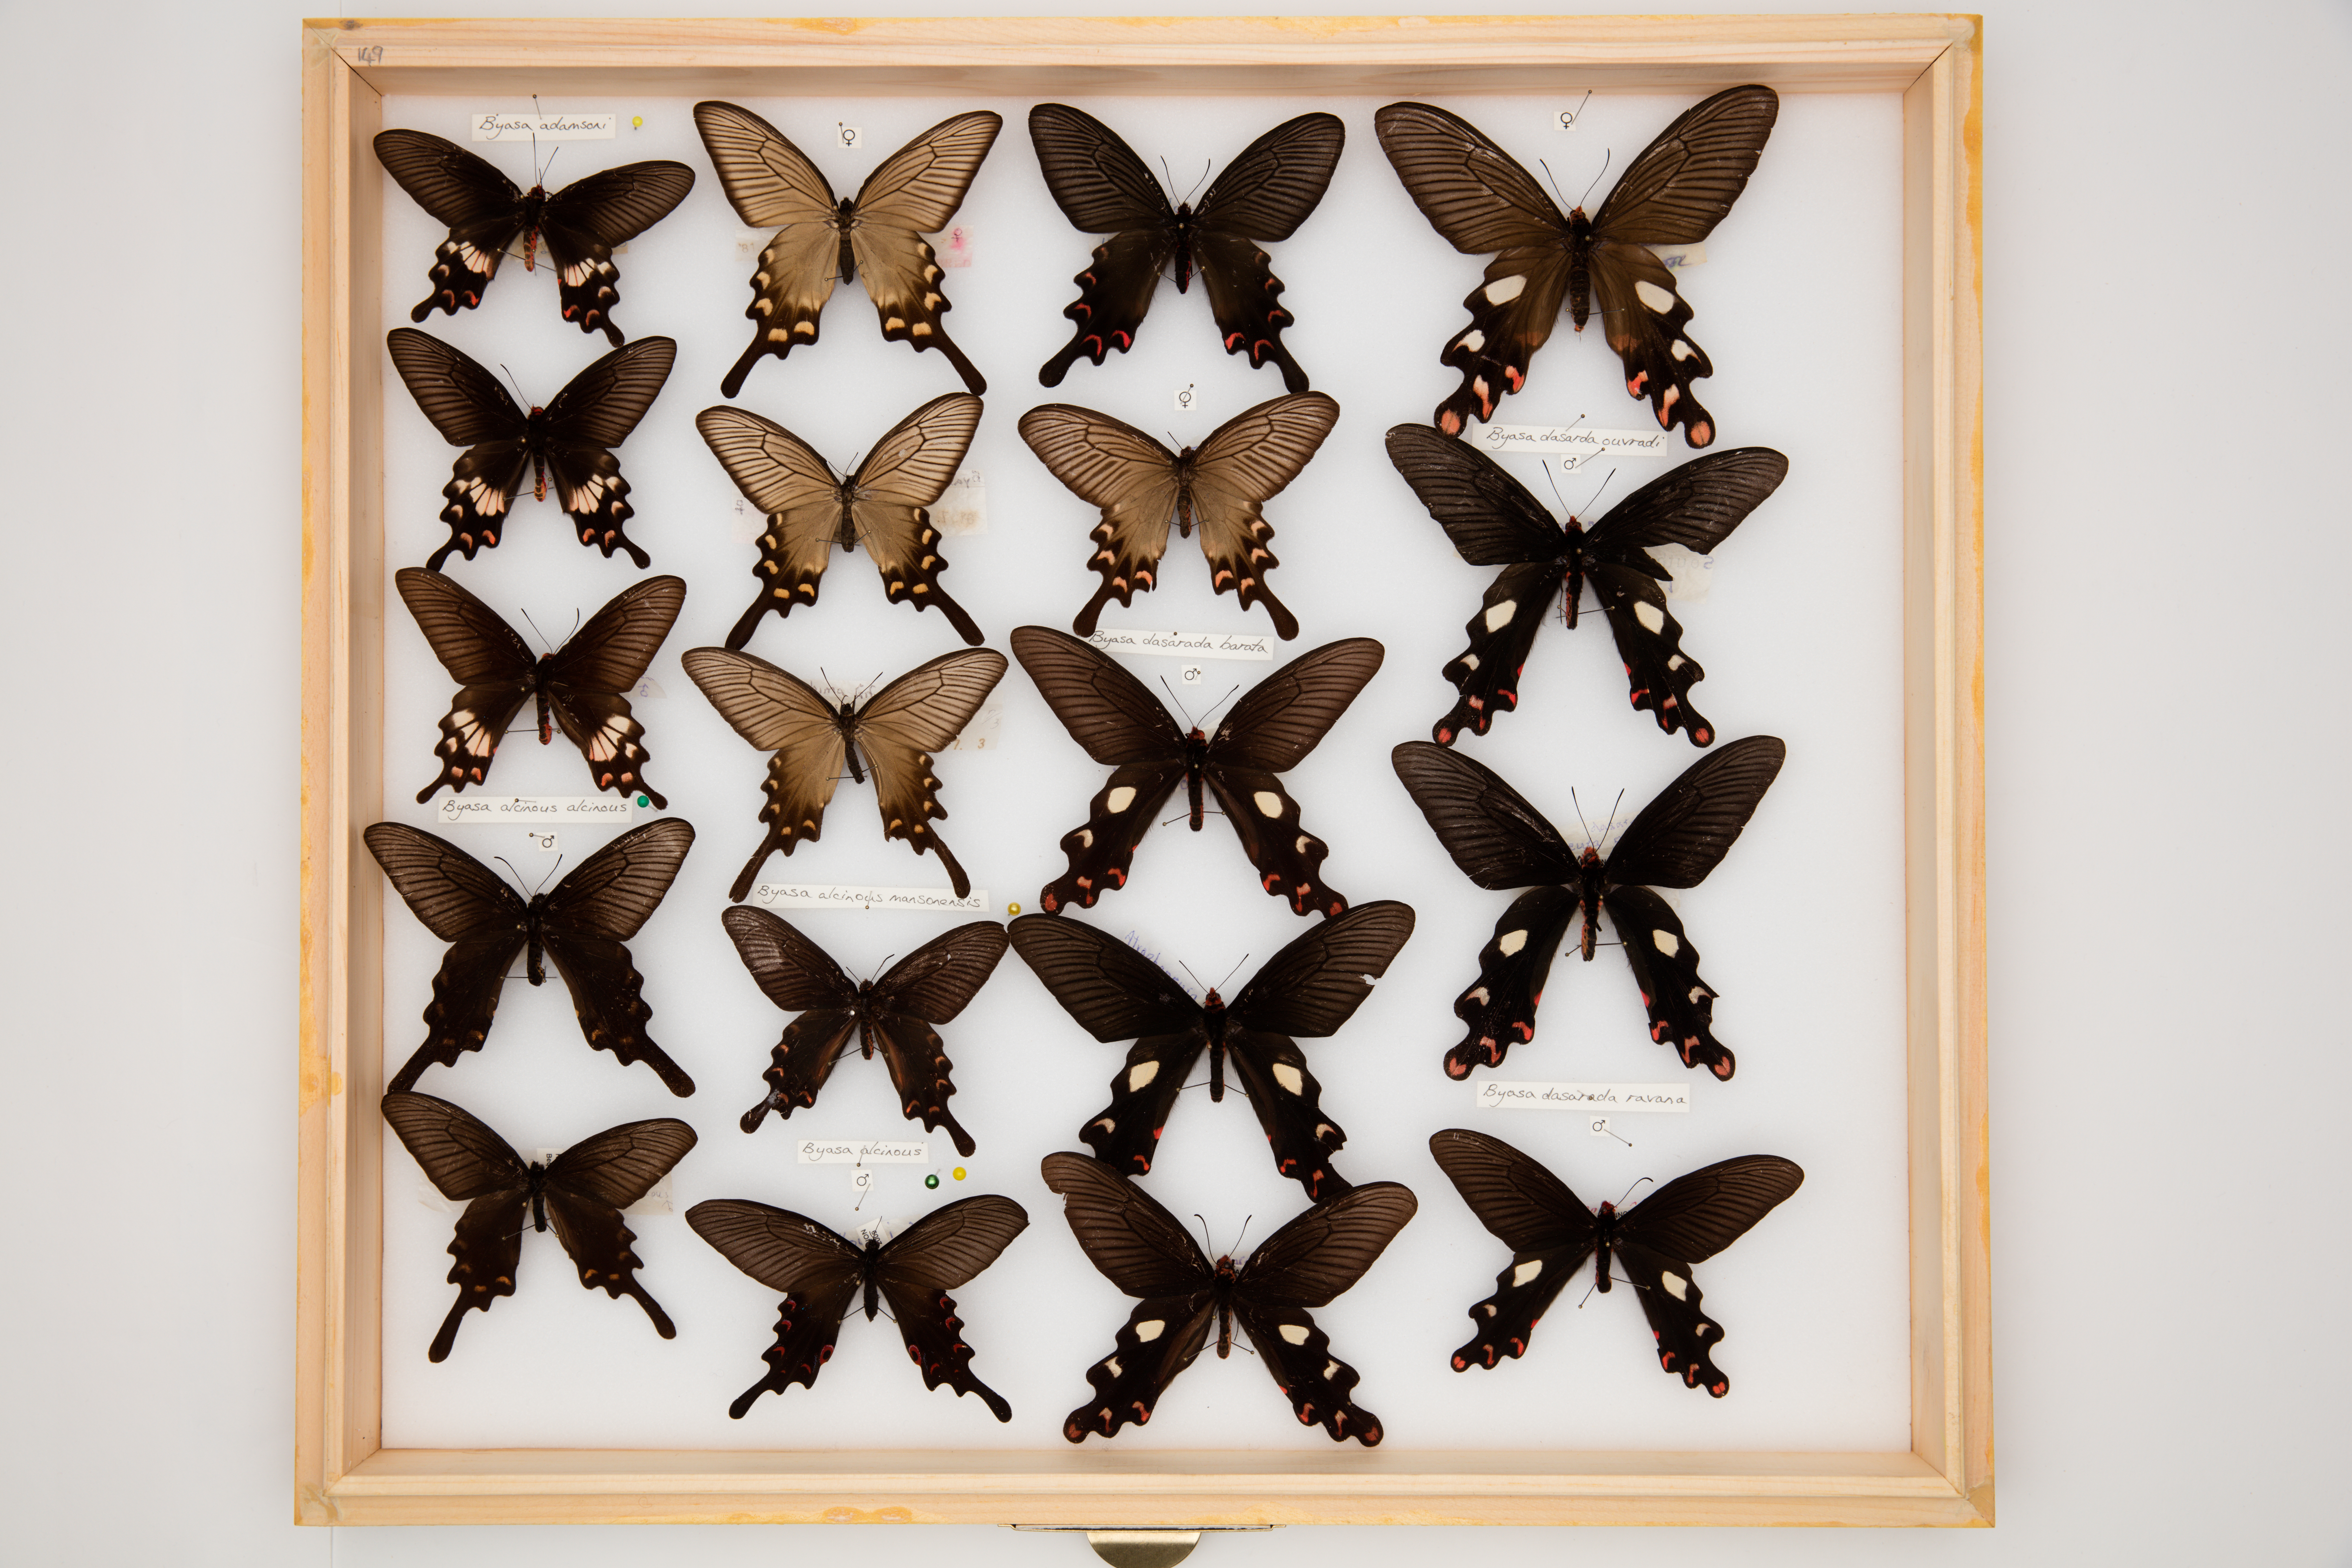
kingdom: Animalia
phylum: Arthropoda
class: Insecta
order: Lepidoptera
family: Papilionidae
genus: Byasa
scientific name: Byasa alcinous
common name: Chinese windmill
